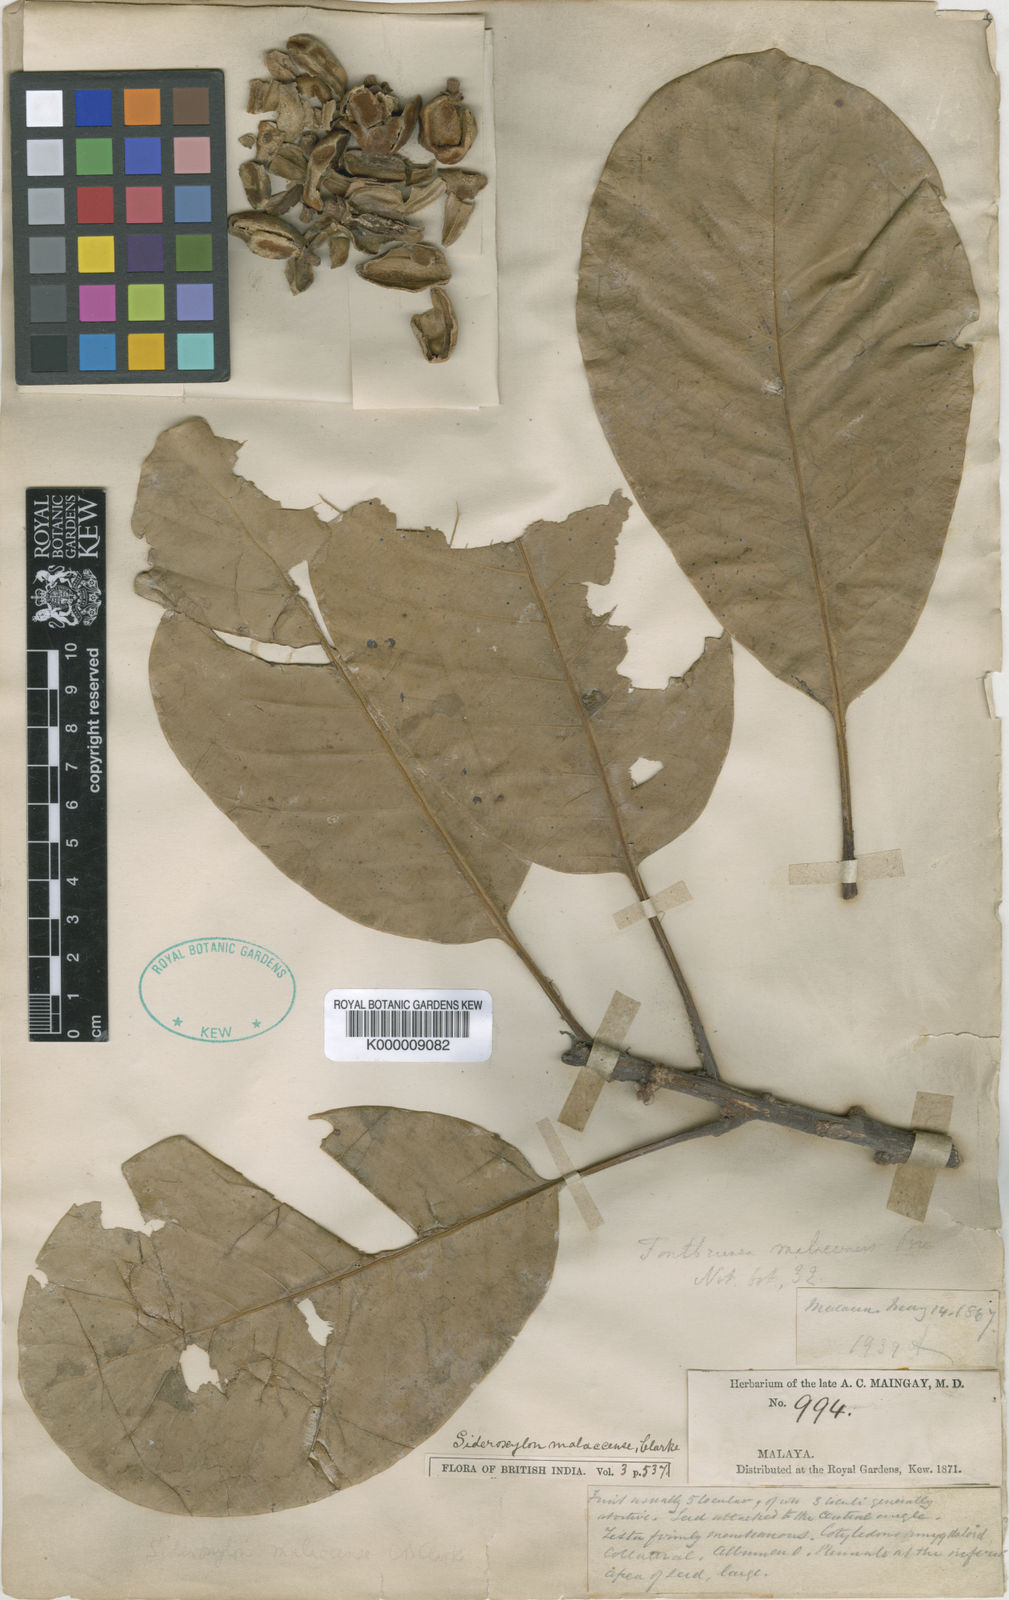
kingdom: Plantae
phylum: Tracheophyta
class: Magnoliopsida
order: Ericales
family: Sapotaceae
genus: Planchonella
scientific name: Planchonella maingayi
